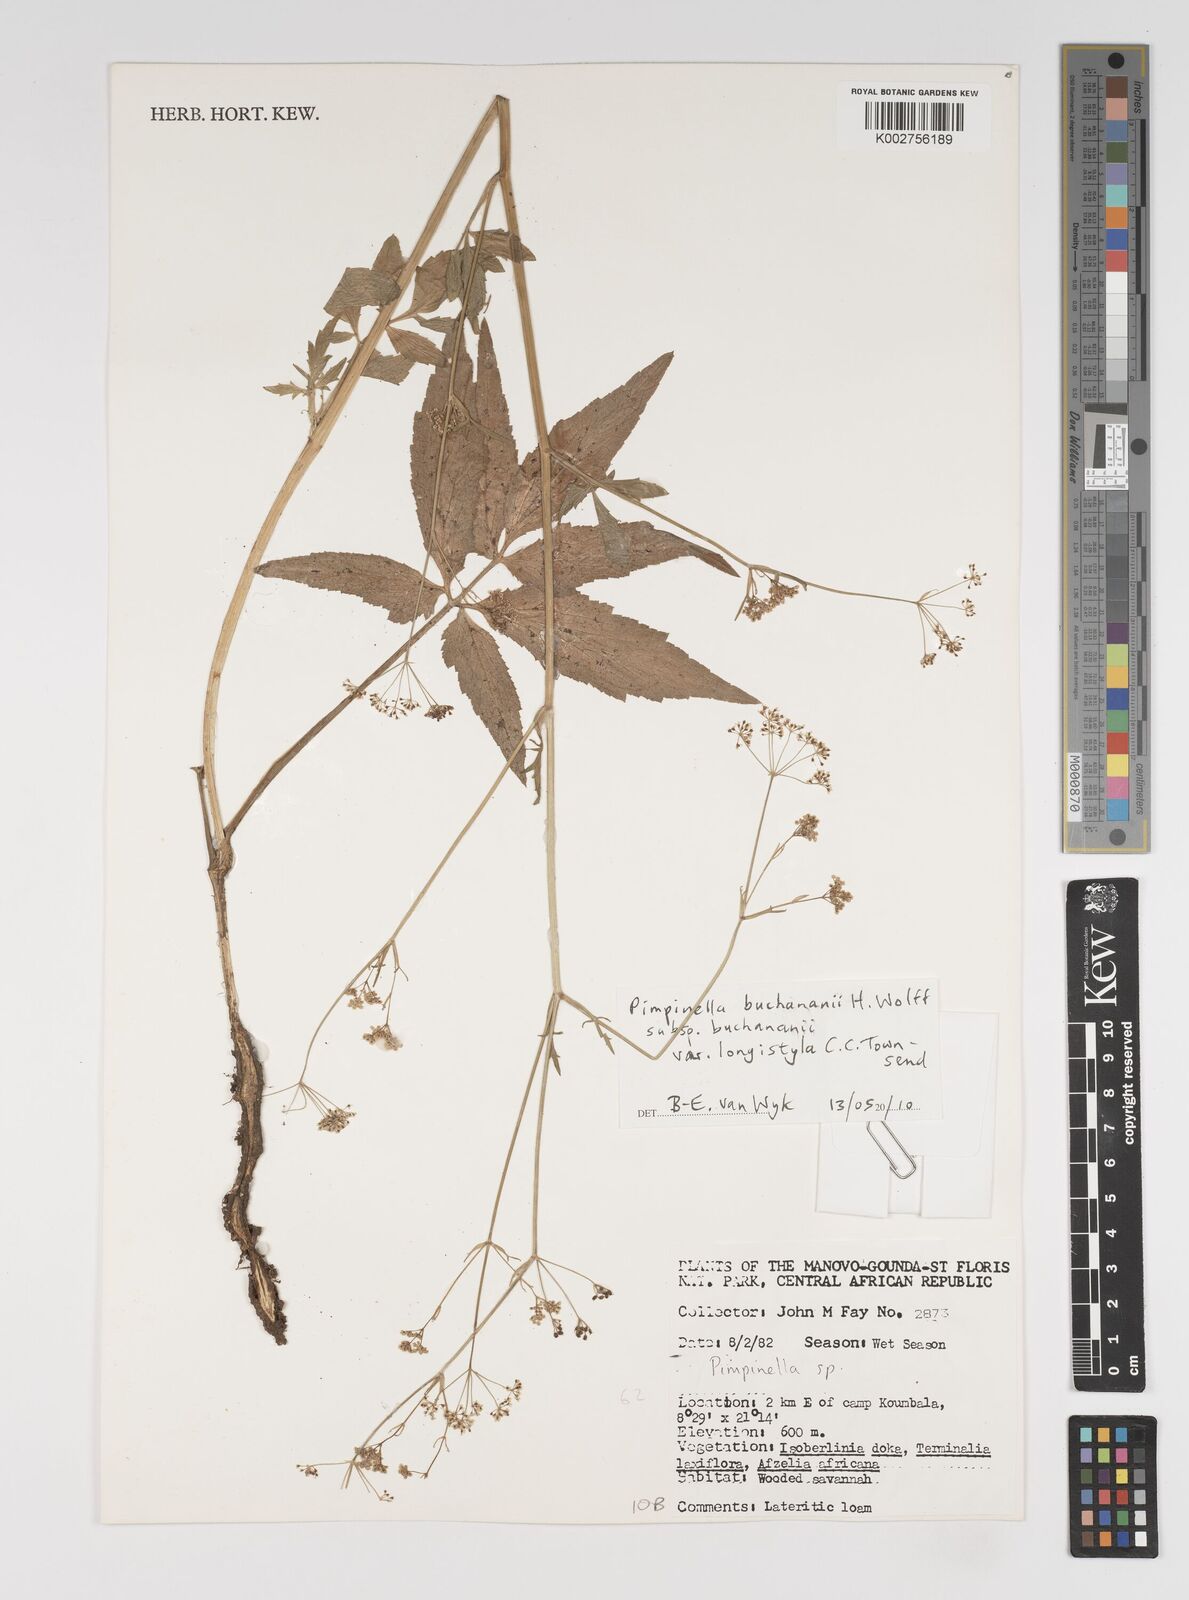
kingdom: Plantae
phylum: Tracheophyta
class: Magnoliopsida
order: Apiales
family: Apiaceae
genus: Pimpinella
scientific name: Pimpinella buchananii
